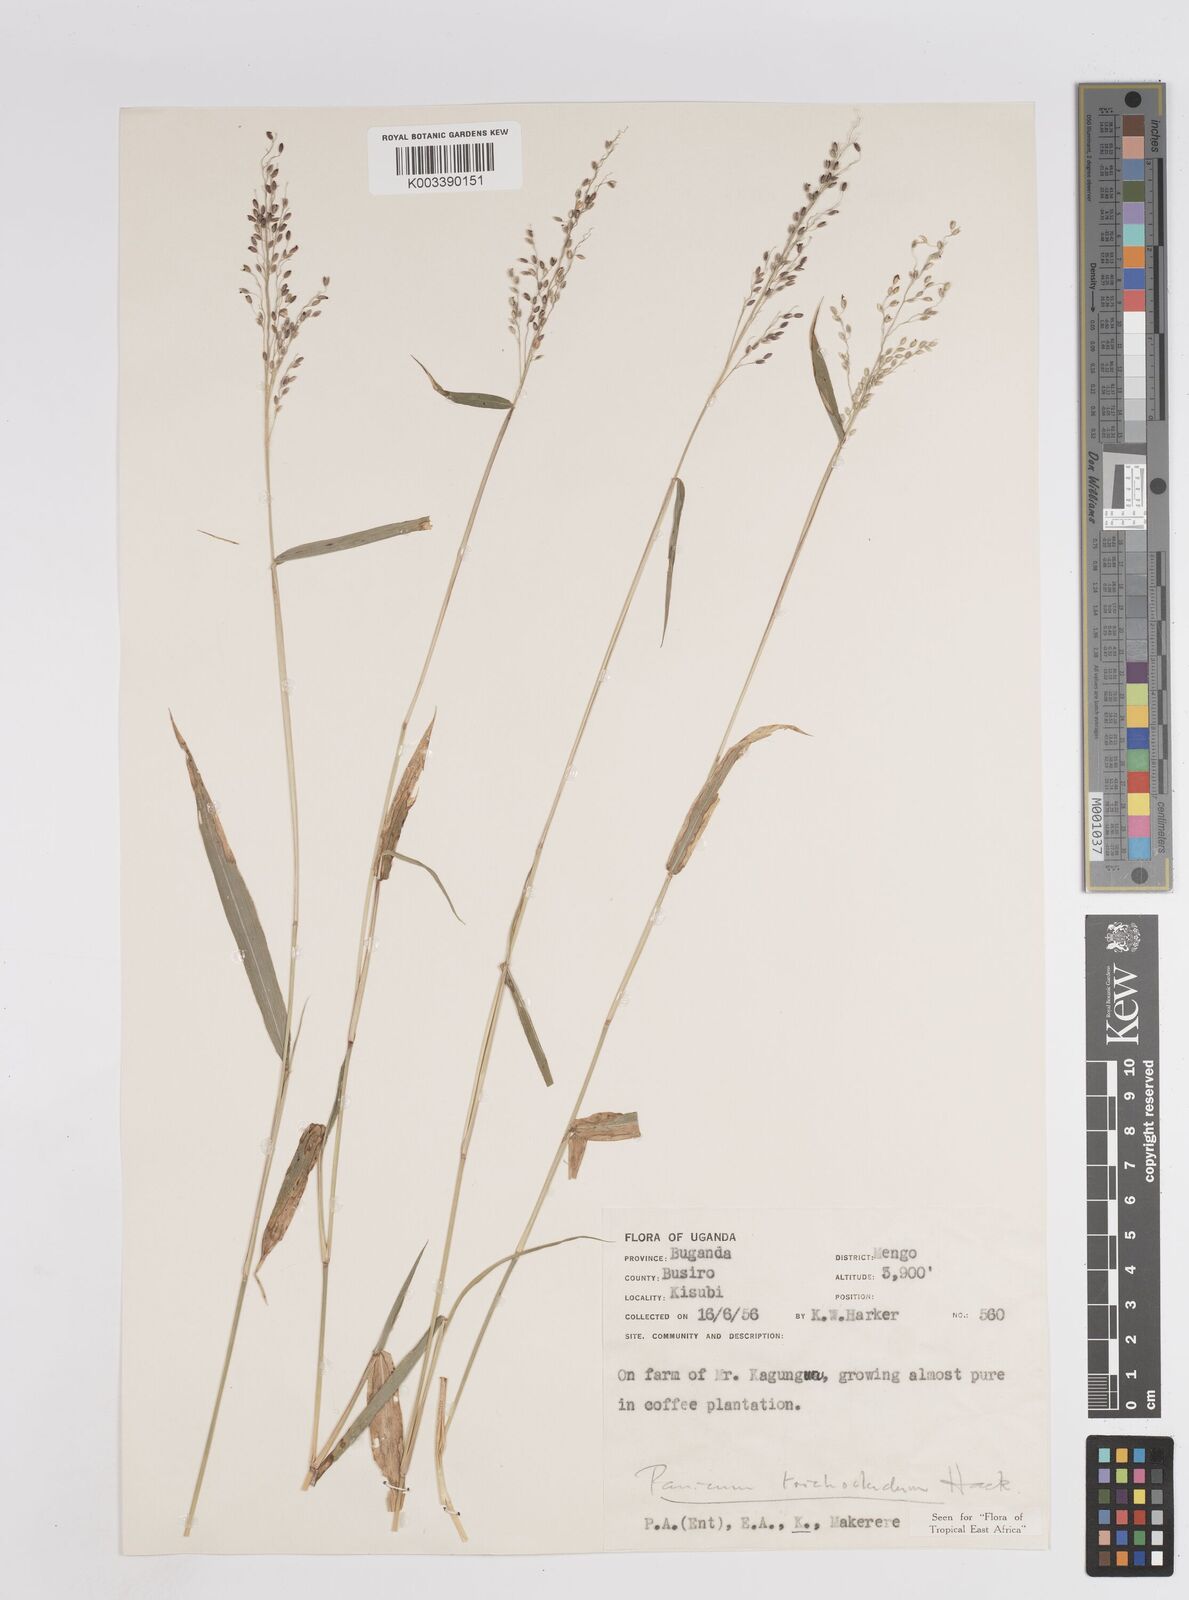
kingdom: Plantae
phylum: Tracheophyta
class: Liliopsida
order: Poales
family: Poaceae
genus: Megathyrsus
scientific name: Megathyrsus maximus
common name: Guineagrass
